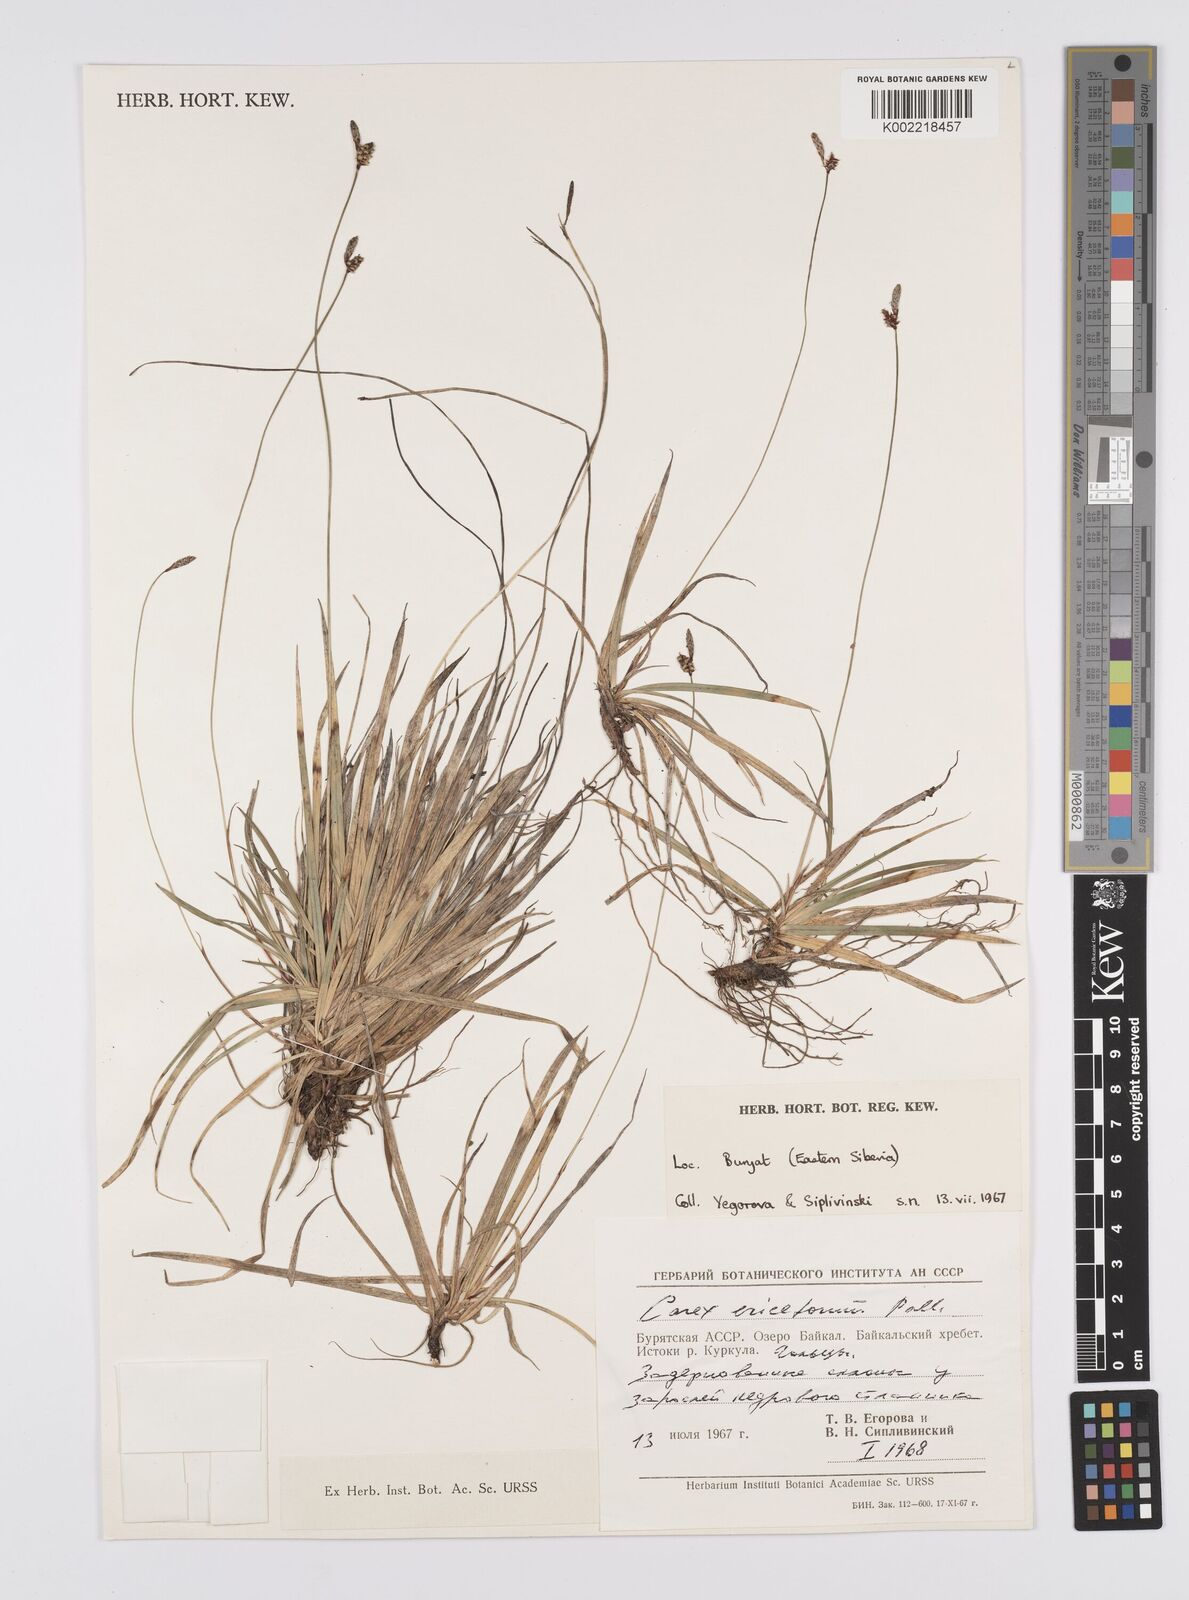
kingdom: Plantae
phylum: Tracheophyta
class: Liliopsida
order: Poales
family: Cyperaceae
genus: Carex
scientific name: Carex ericetorum
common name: Rare spring-sedge
